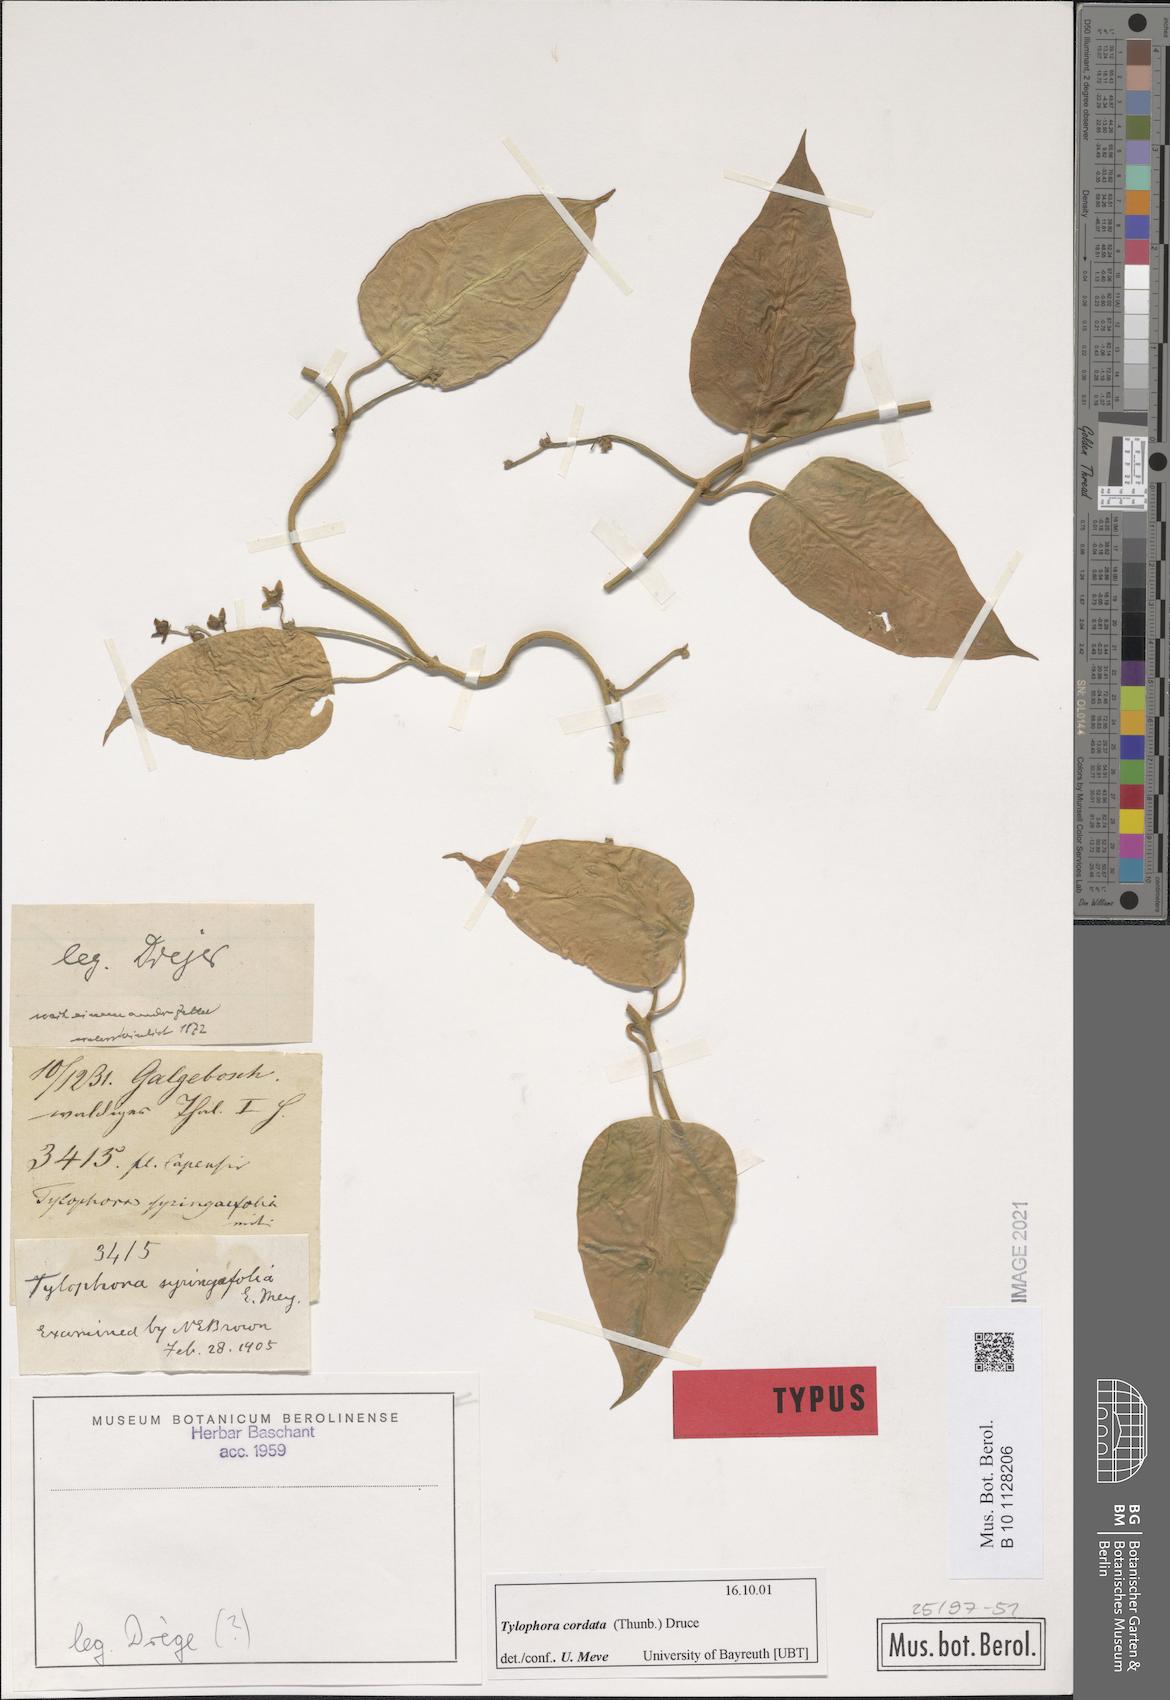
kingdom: Plantae
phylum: Tracheophyta
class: Magnoliopsida
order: Gentianales
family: Apocynaceae
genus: Vincetoxicum
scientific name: Vincetoxicum cordatum
